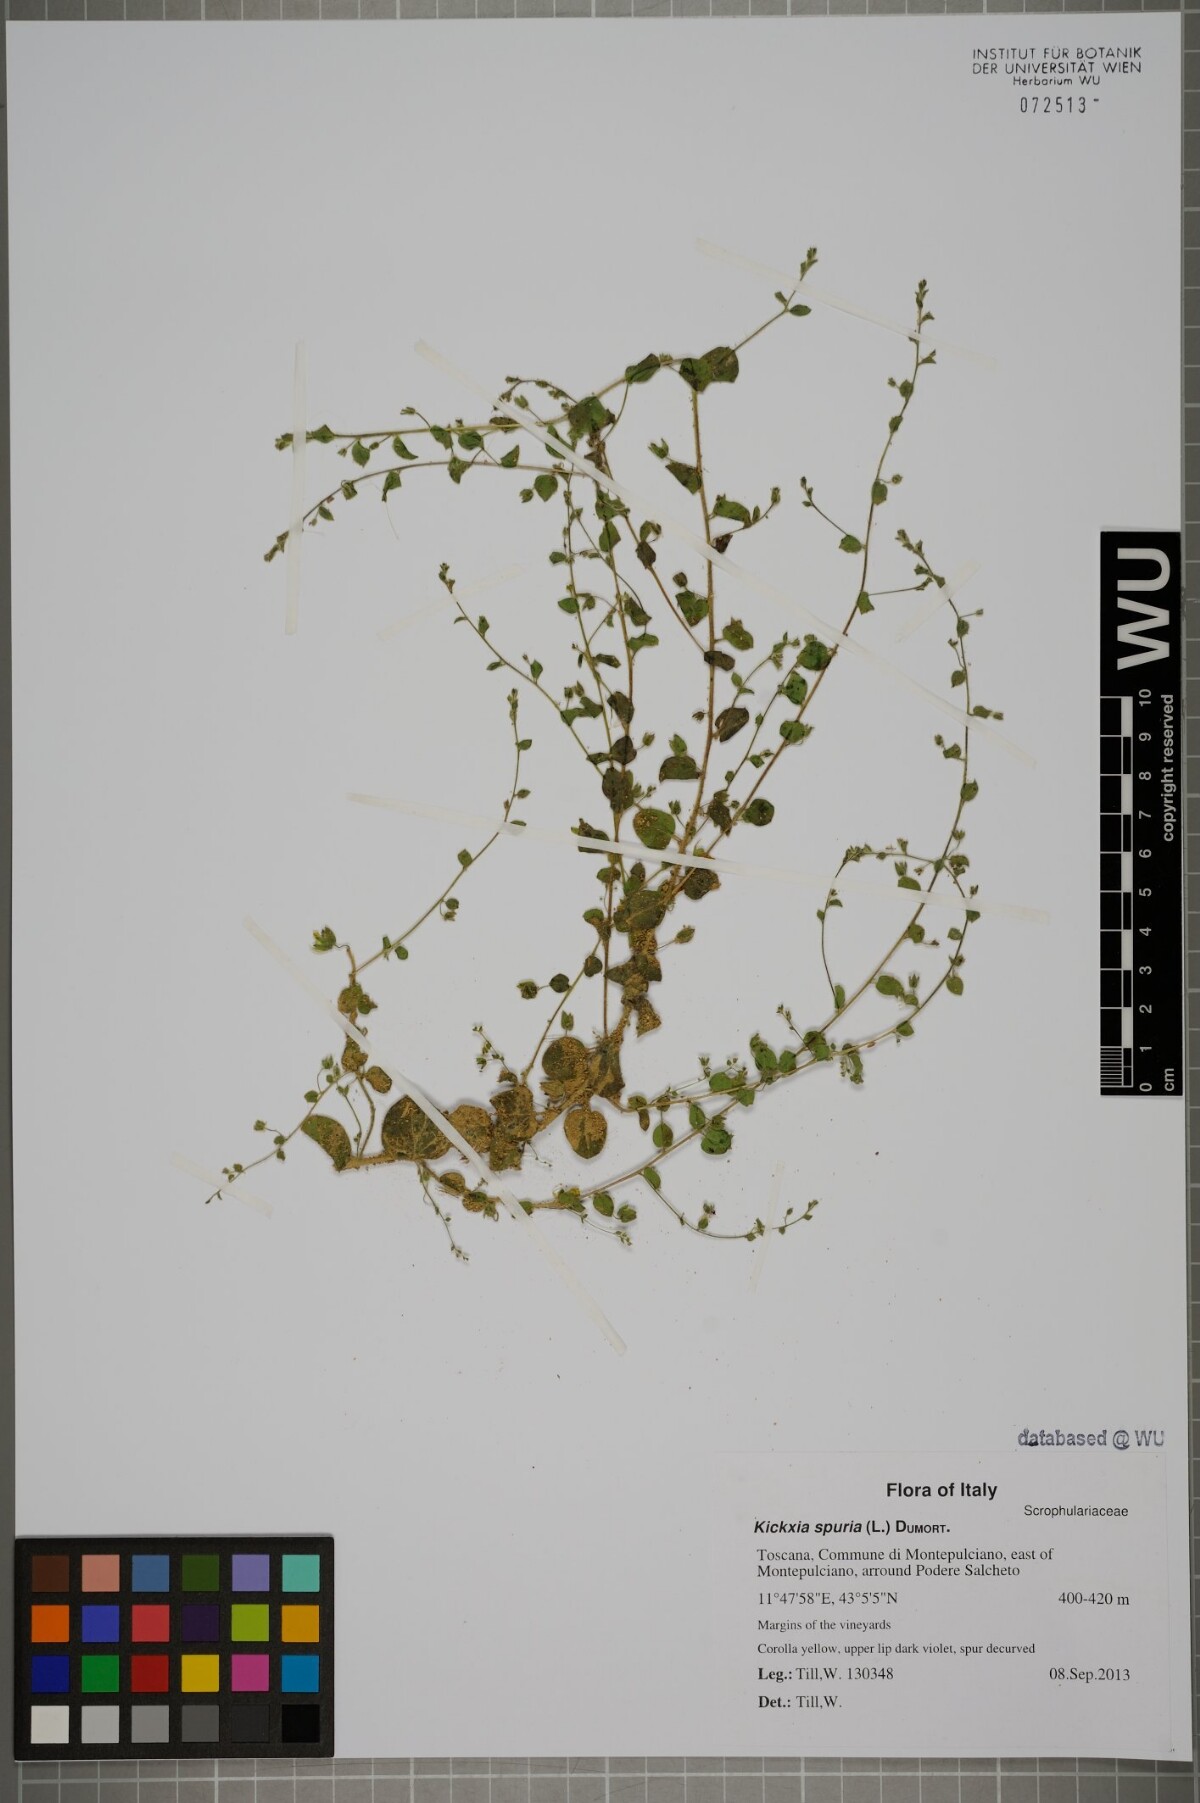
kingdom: Plantae
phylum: Tracheophyta
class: Magnoliopsida
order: Lamiales
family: Plantaginaceae
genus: Kickxia
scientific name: Kickxia spuria
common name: Round-leaved fluellen
